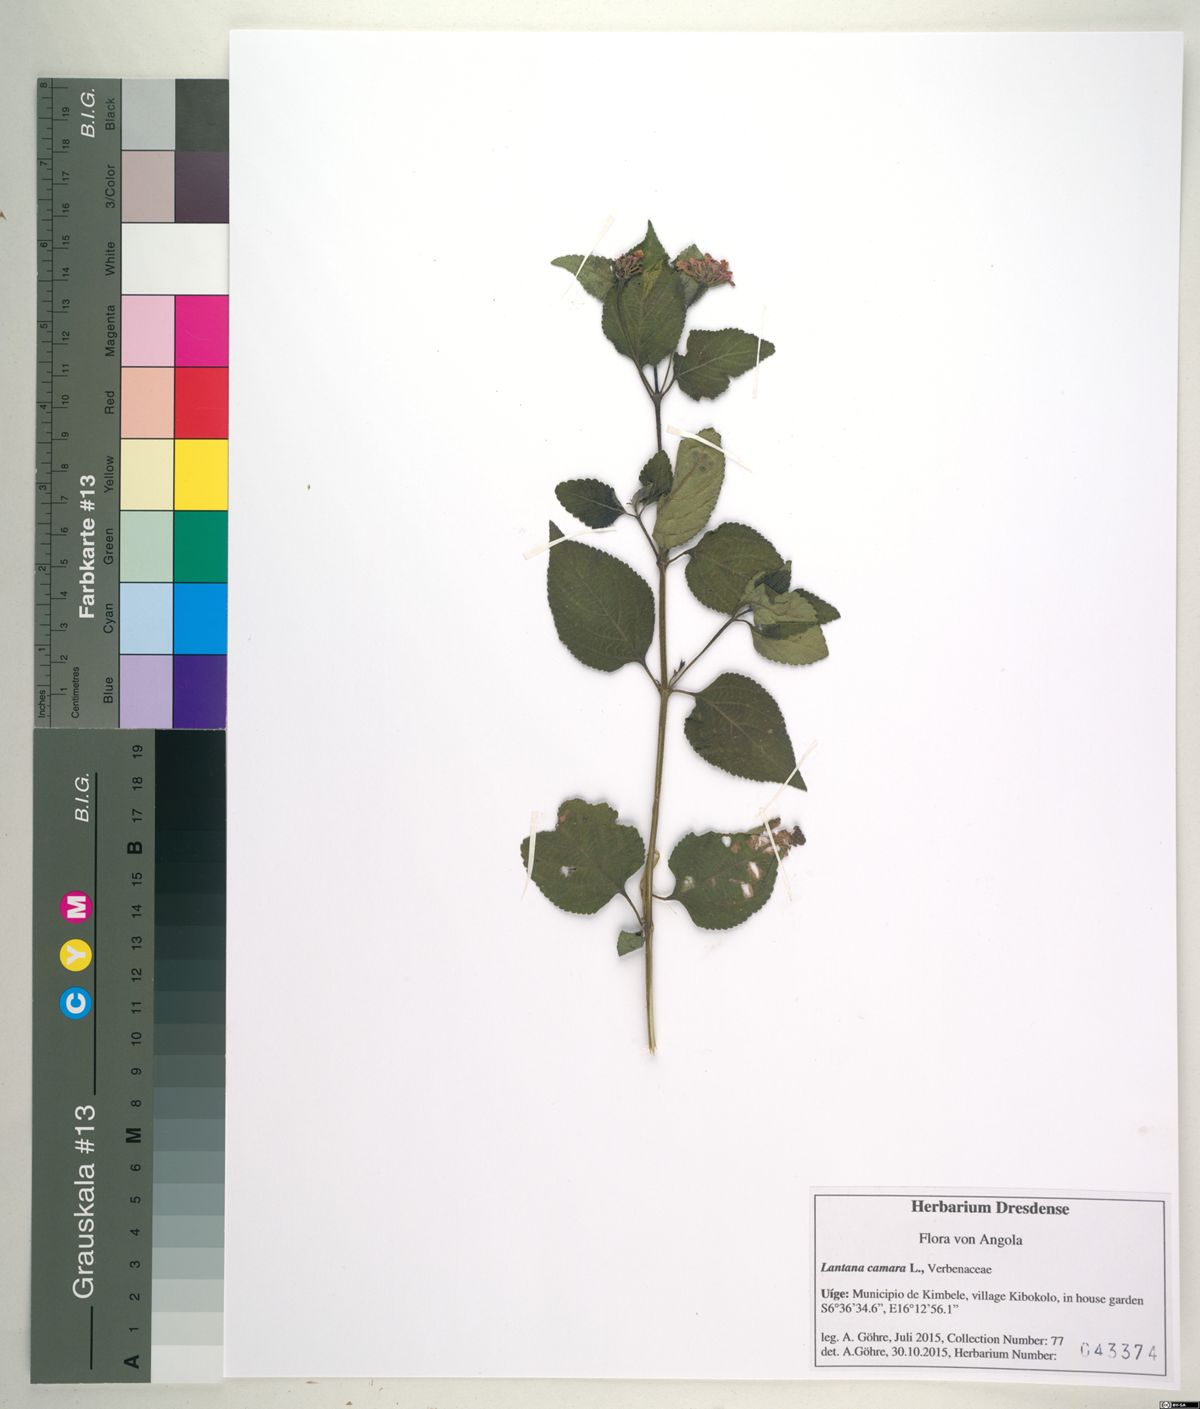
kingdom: Plantae
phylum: Tracheophyta
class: Magnoliopsida
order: Lamiales
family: Verbenaceae
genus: Lantana
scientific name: Lantana camara
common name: Lantana
